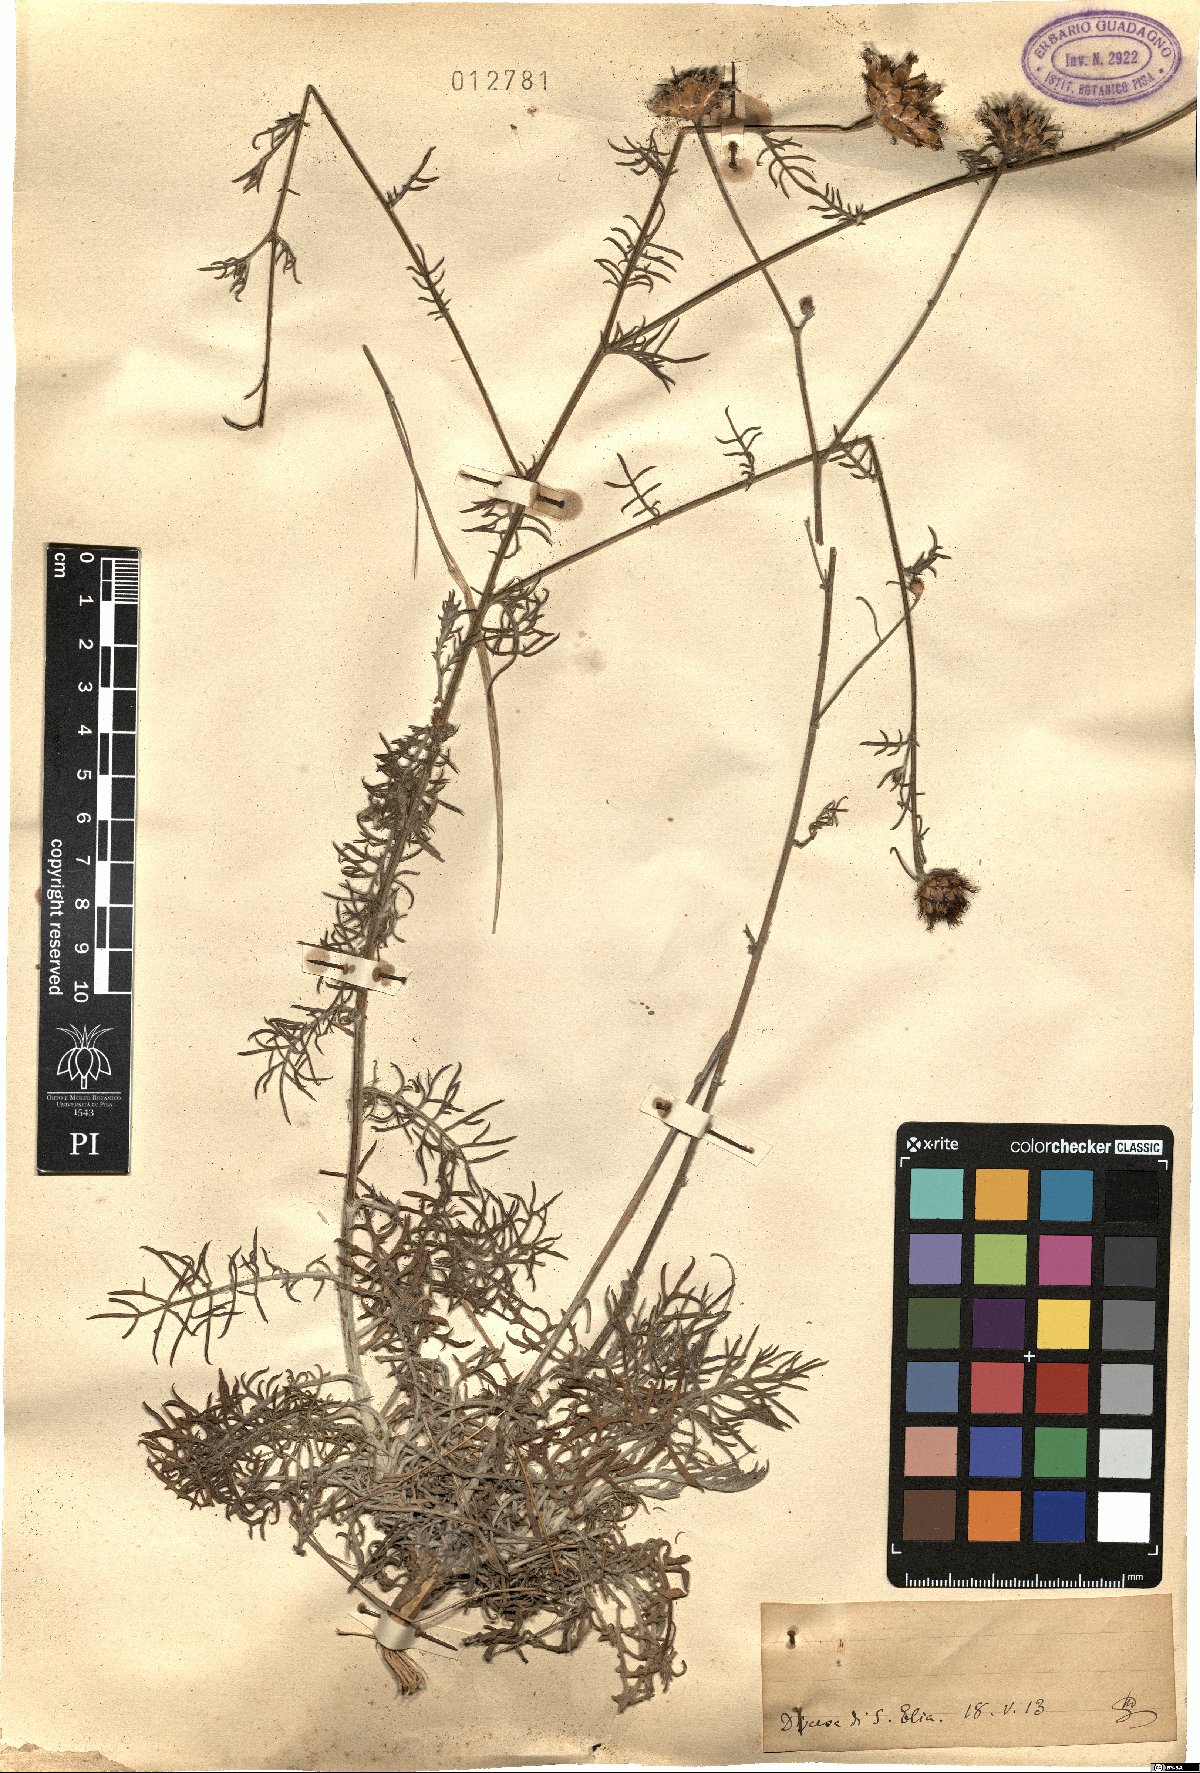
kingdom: Plantae
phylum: Tracheophyta
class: Magnoliopsida
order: Asterales
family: Asteraceae
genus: Centaurea
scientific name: Centaurea
